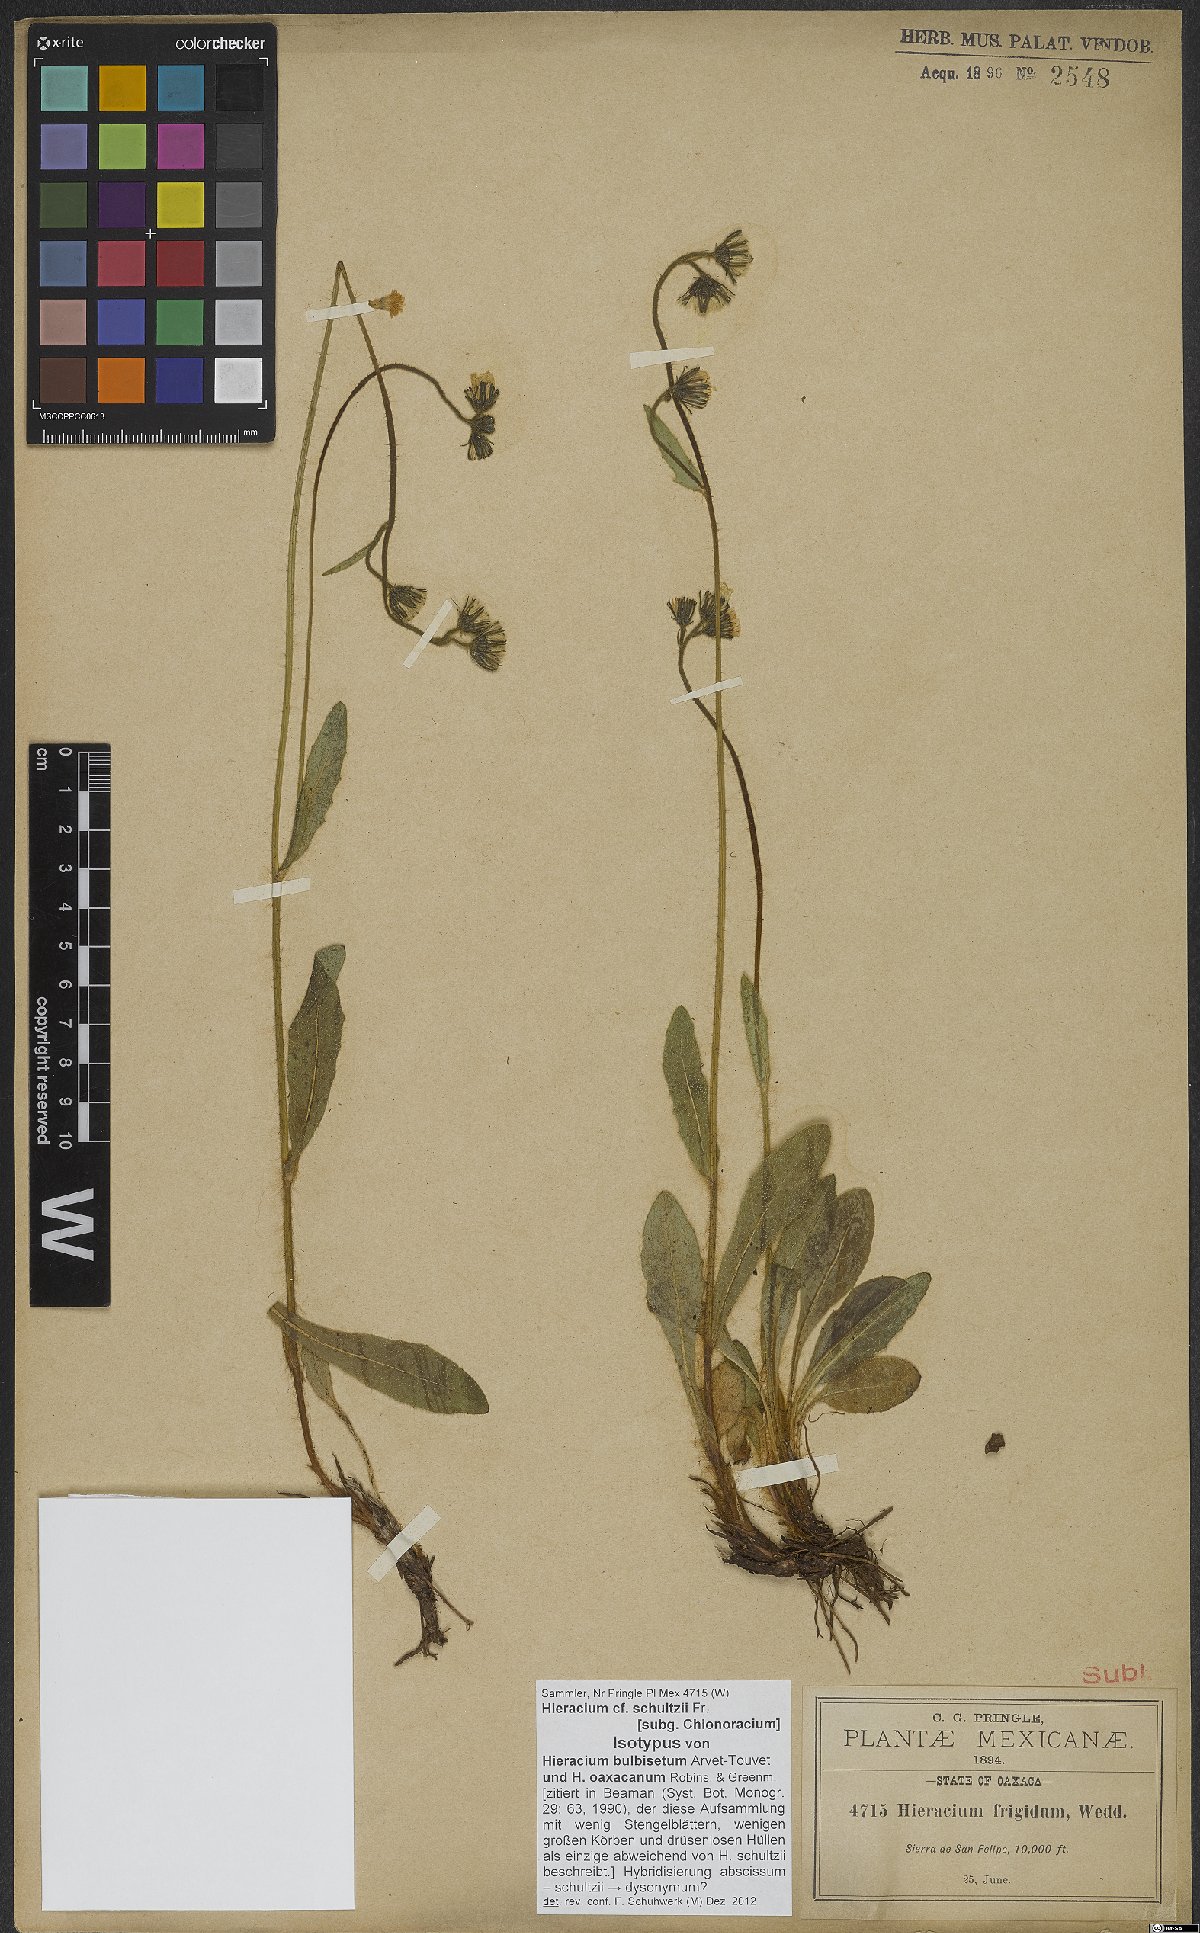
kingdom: Plantae
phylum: Tracheophyta
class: Magnoliopsida
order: Asterales
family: Asteraceae
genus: Hieracium
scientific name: Hieracium friesii
